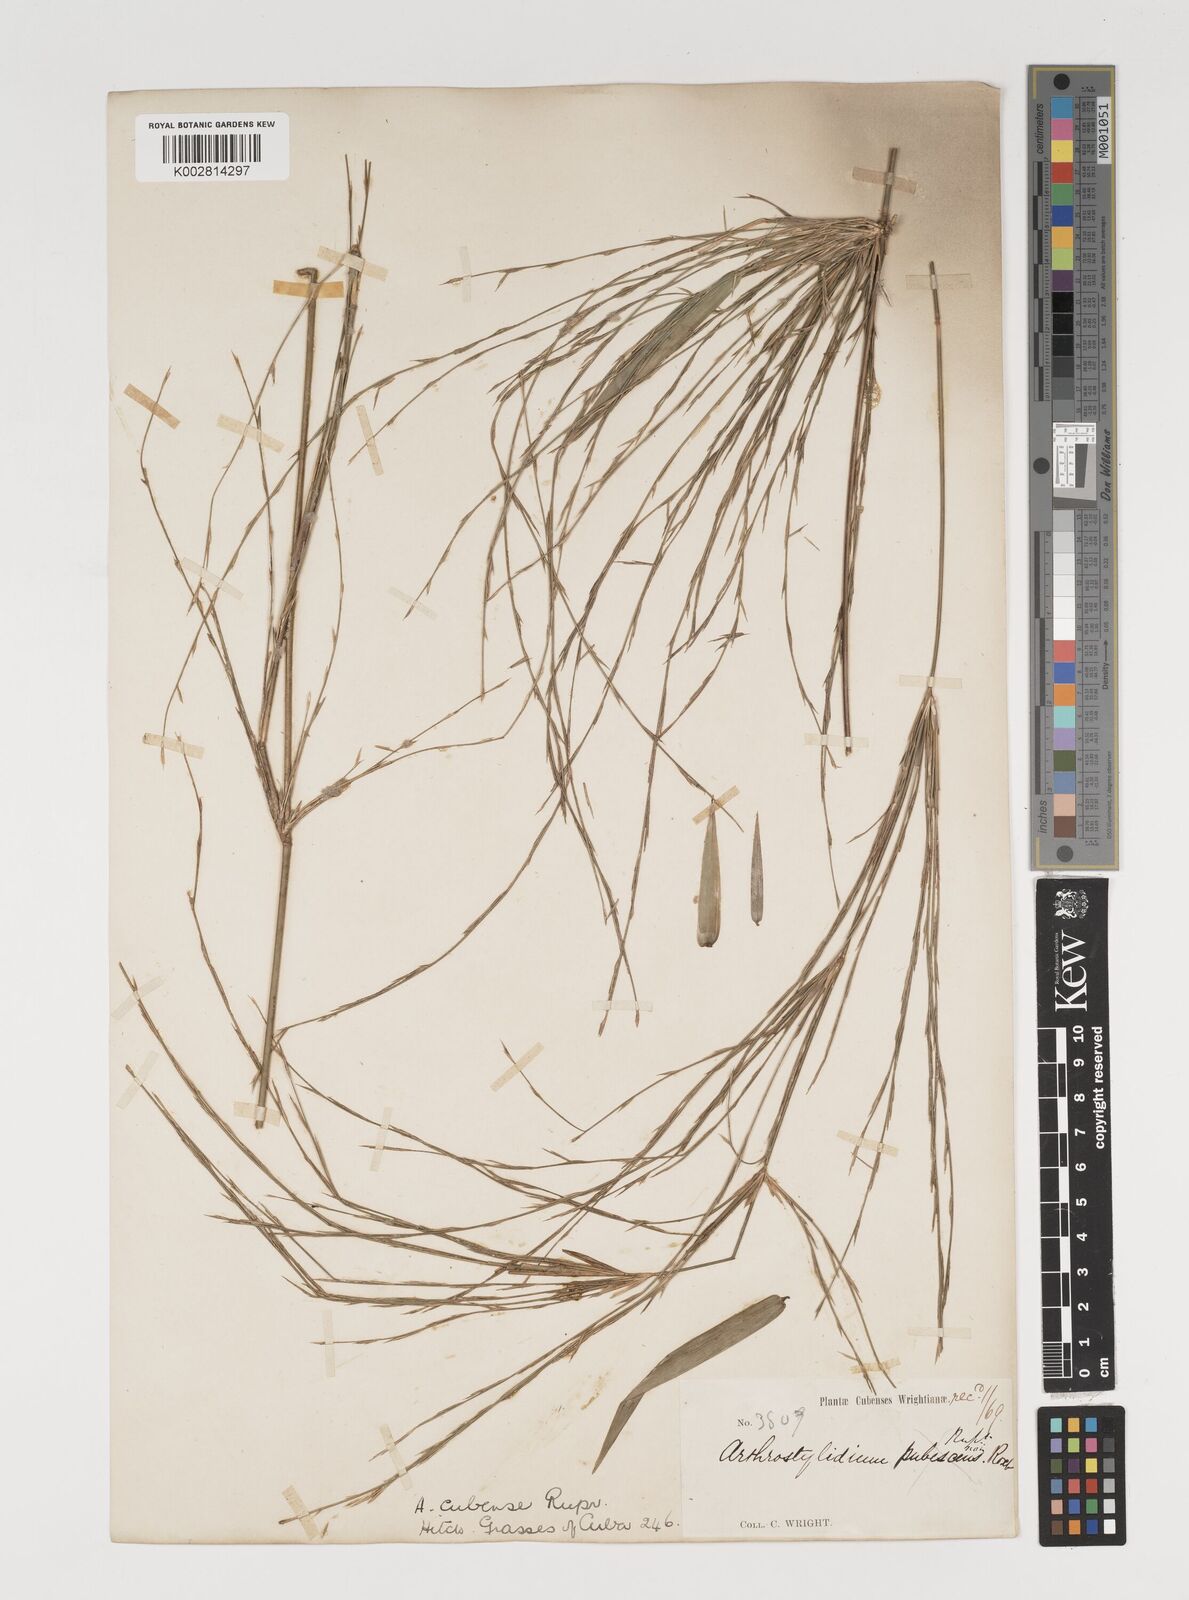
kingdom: Plantae
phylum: Tracheophyta
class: Liliopsida
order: Poales
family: Poaceae
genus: Arthrostylidium
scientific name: Arthrostylidium cubense
